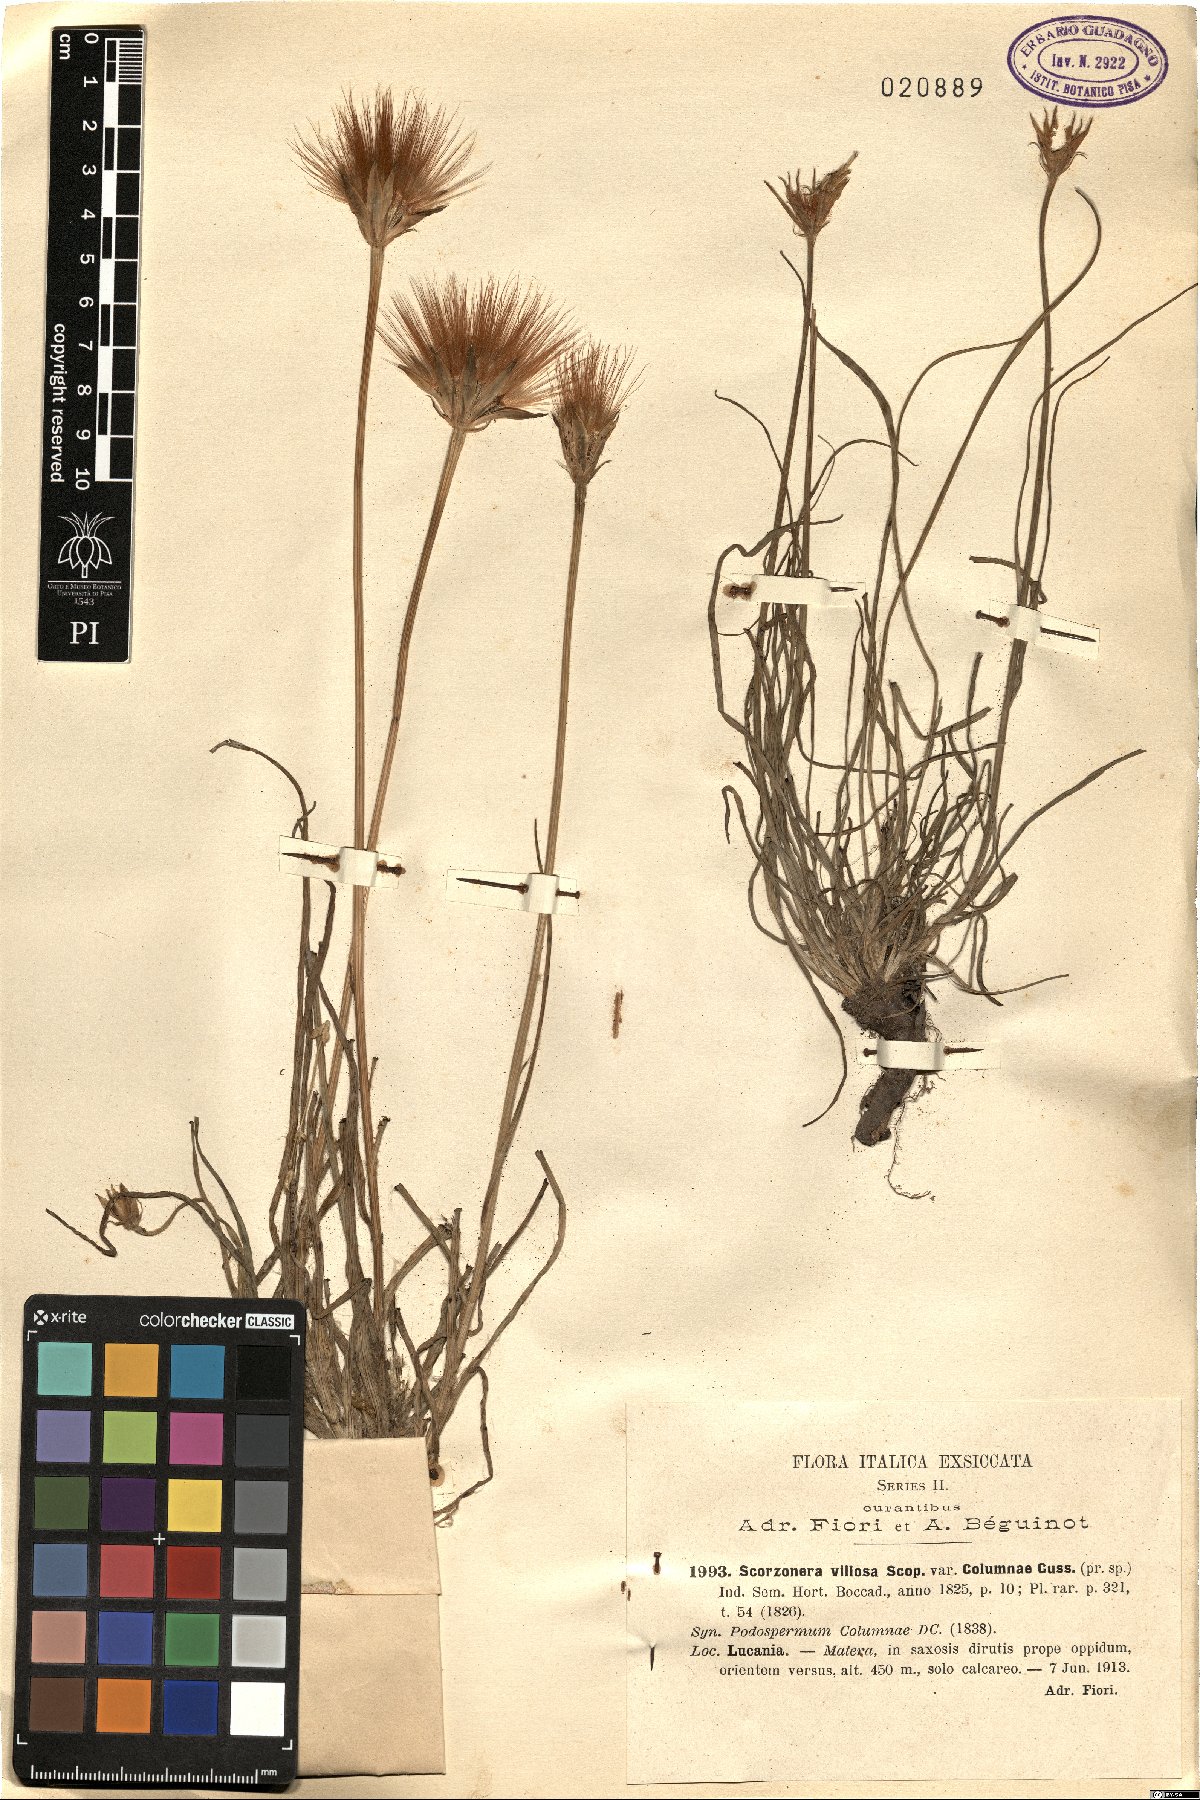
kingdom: Plantae
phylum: Tracheophyta
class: Magnoliopsida
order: Asterales
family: Asteraceae
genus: Gelasia
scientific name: Gelasia villosa
